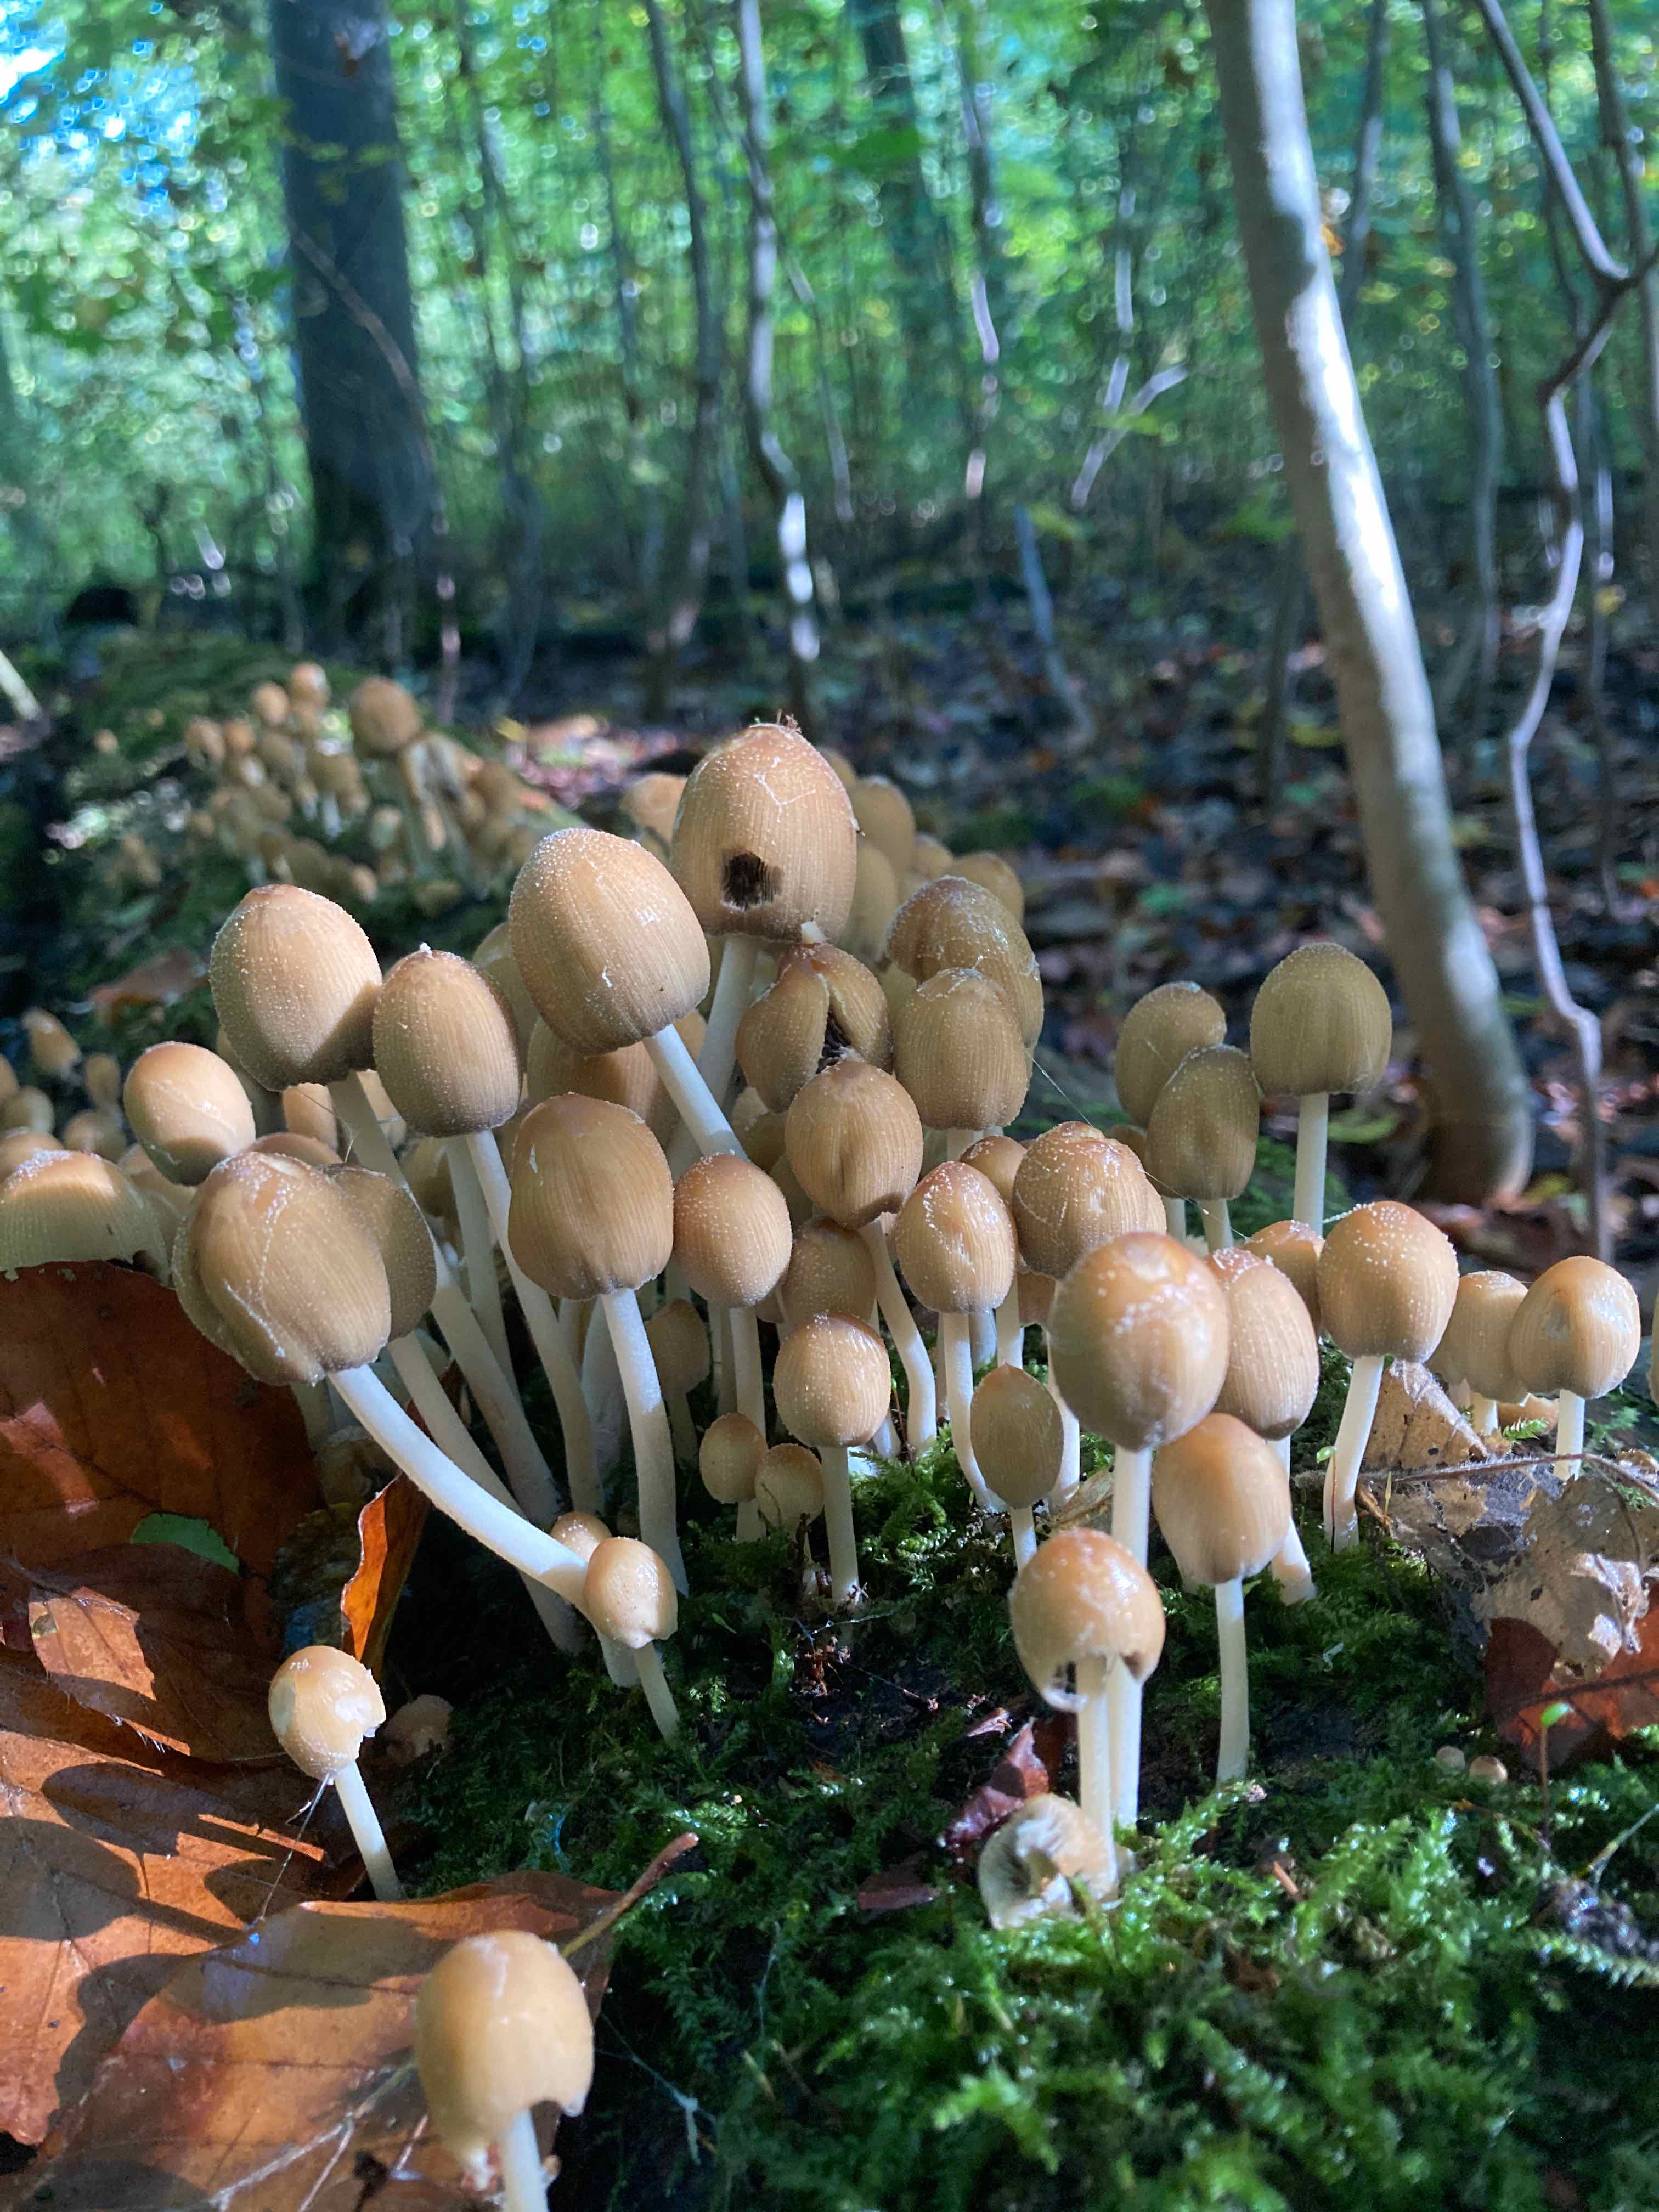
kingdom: Fungi
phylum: Basidiomycota
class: Agaricomycetes
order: Agaricales
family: Psathyrellaceae
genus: Coprinellus
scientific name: Coprinellus micaceus
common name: glimmer-blækhat
